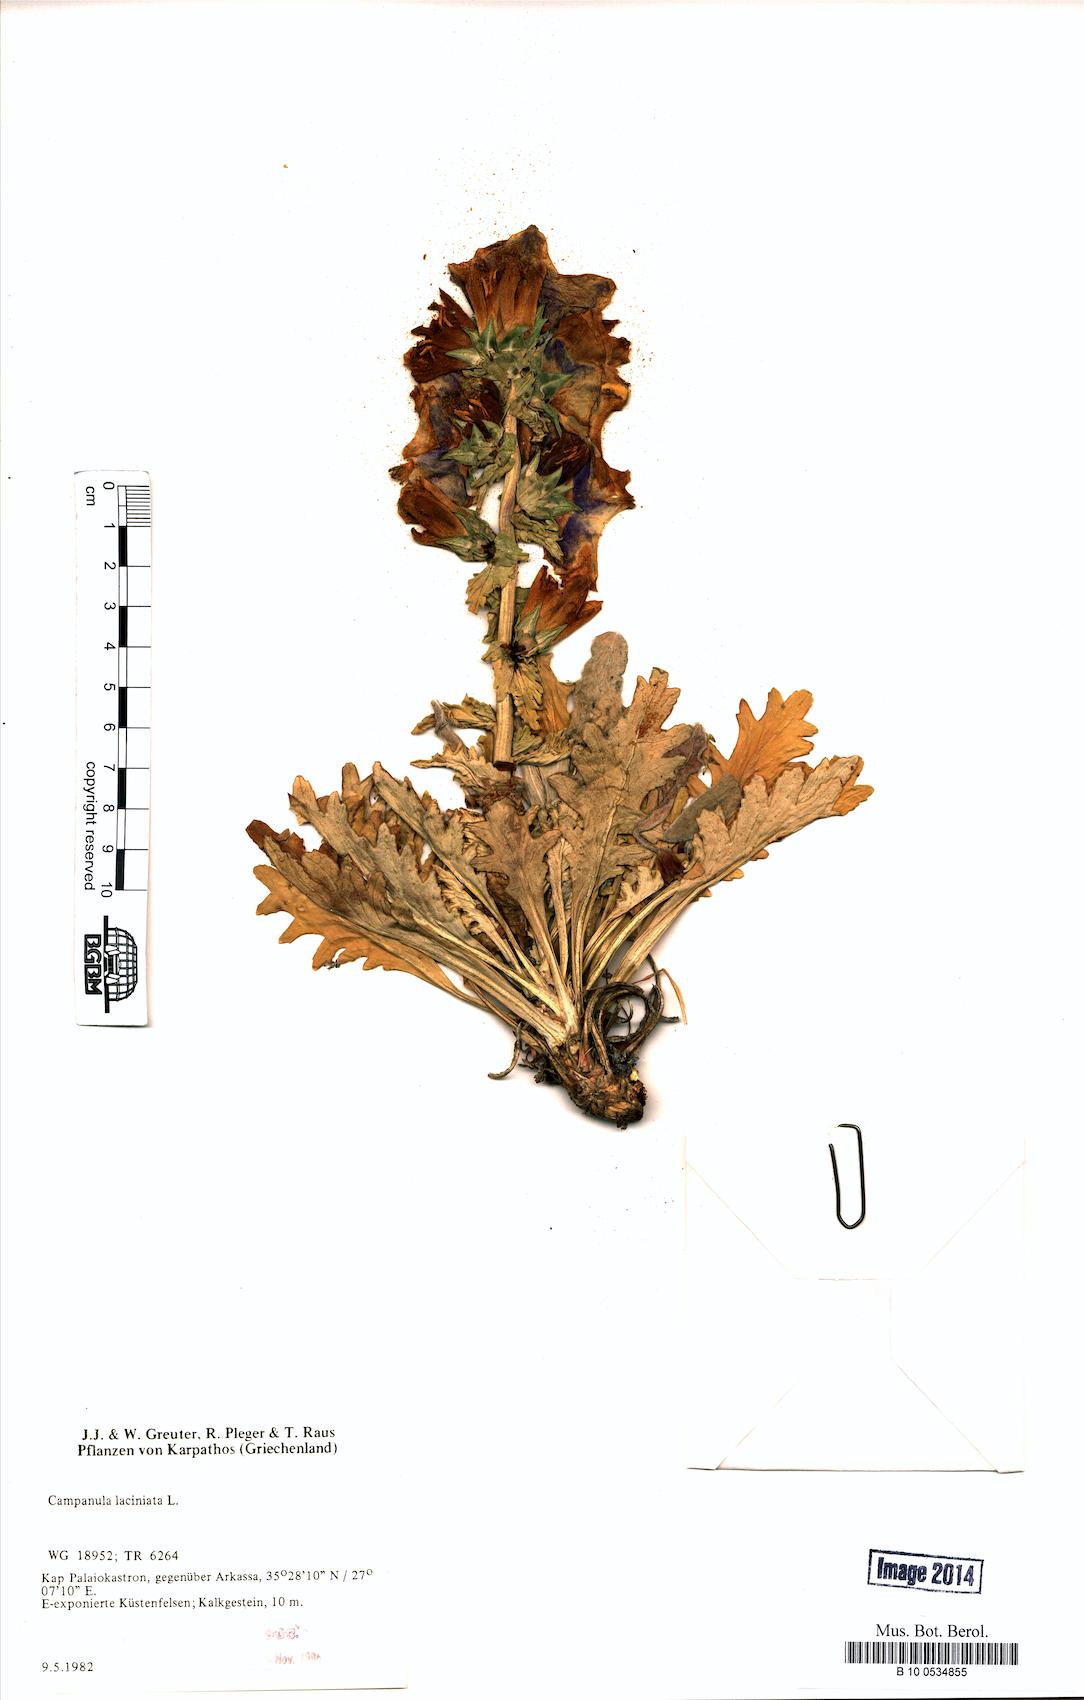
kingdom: Plantae
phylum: Tracheophyta
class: Magnoliopsida
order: Asterales
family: Campanulaceae
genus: Campanula
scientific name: Campanula laciniata
